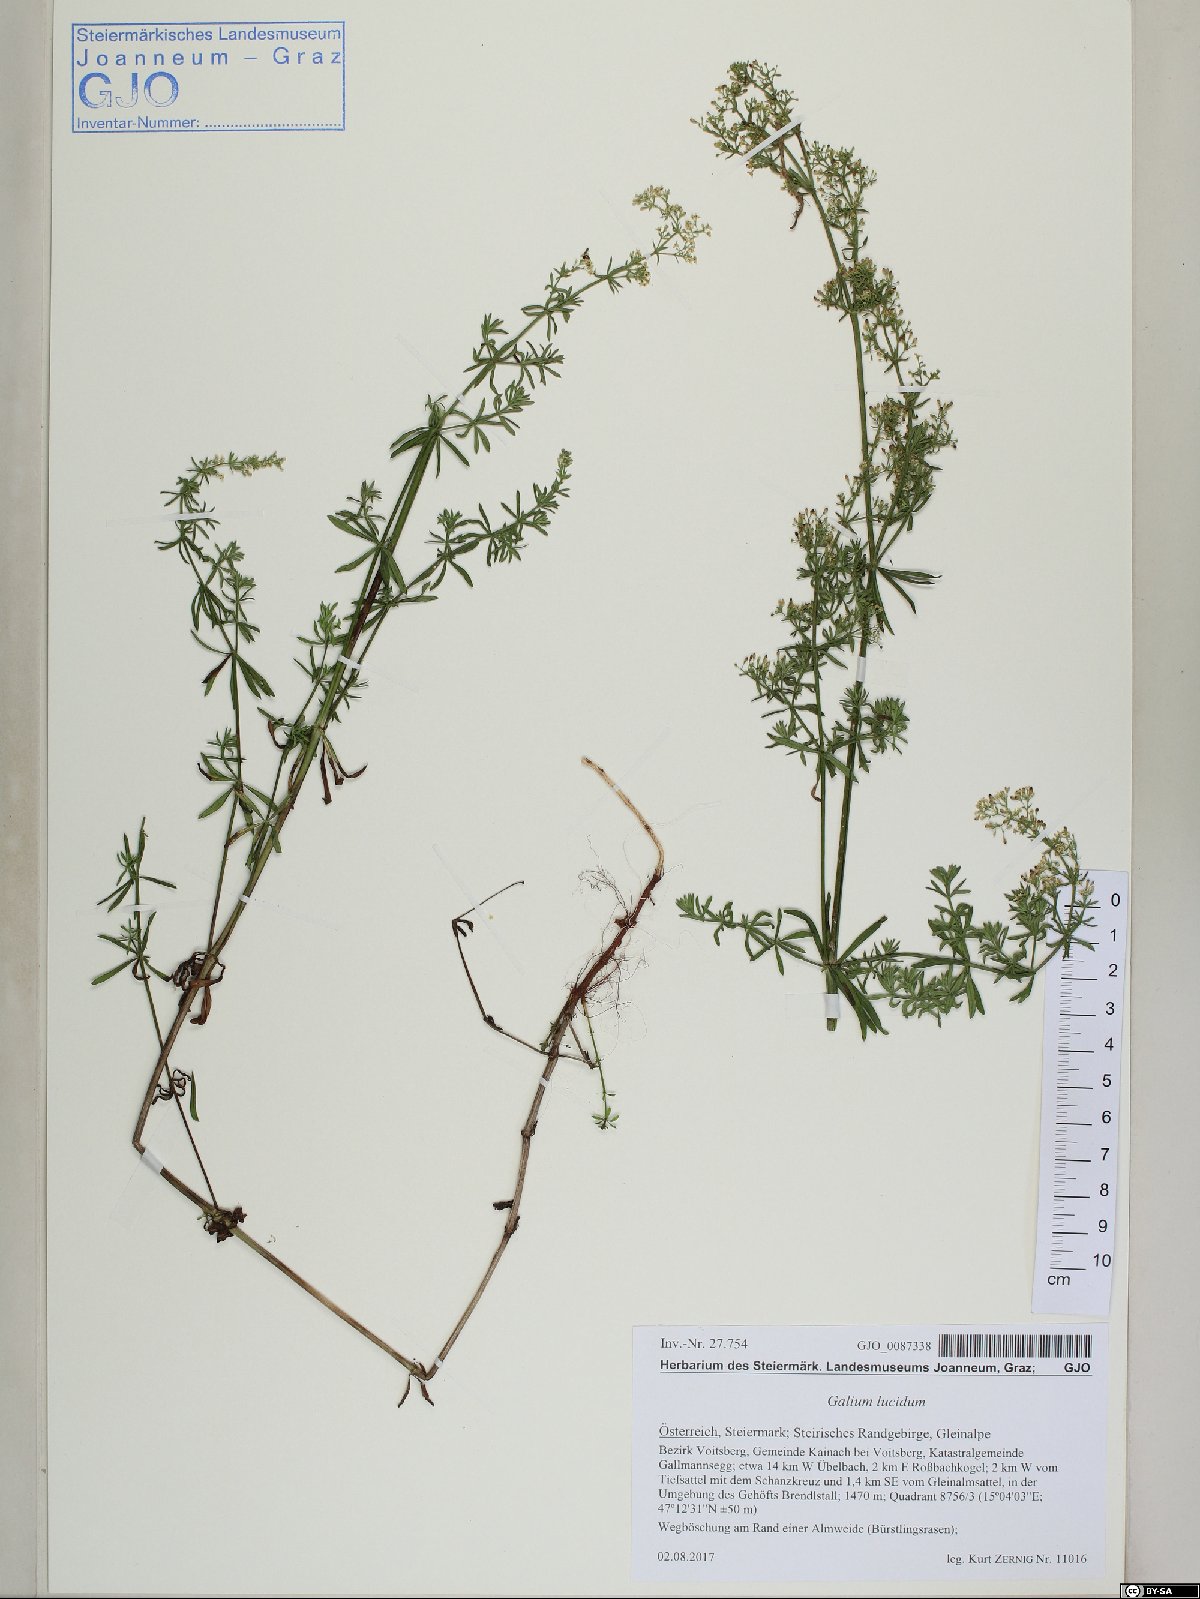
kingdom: Plantae
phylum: Tracheophyta
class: Magnoliopsida
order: Gentianales
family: Rubiaceae
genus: Galium
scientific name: Galium lucidum
